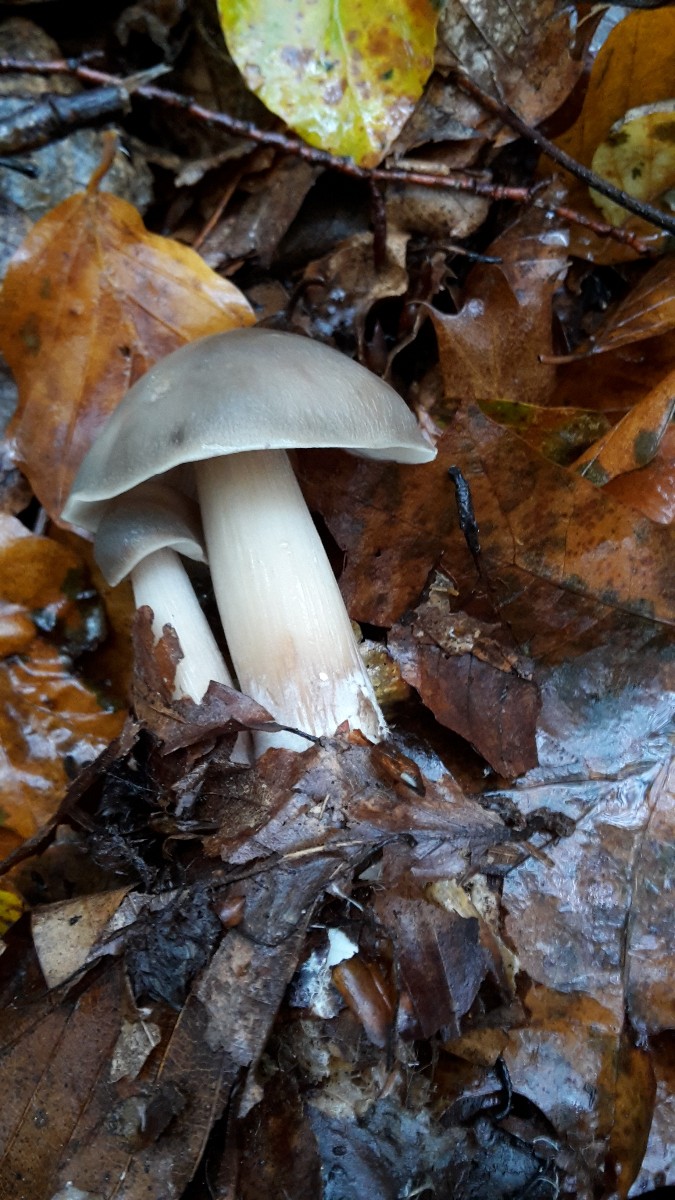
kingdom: Fungi
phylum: Basidiomycota
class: Agaricomycetes
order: Agaricales
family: Omphalotaceae
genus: Rhodocollybia
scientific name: Rhodocollybia asema
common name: horngrå fladhat
